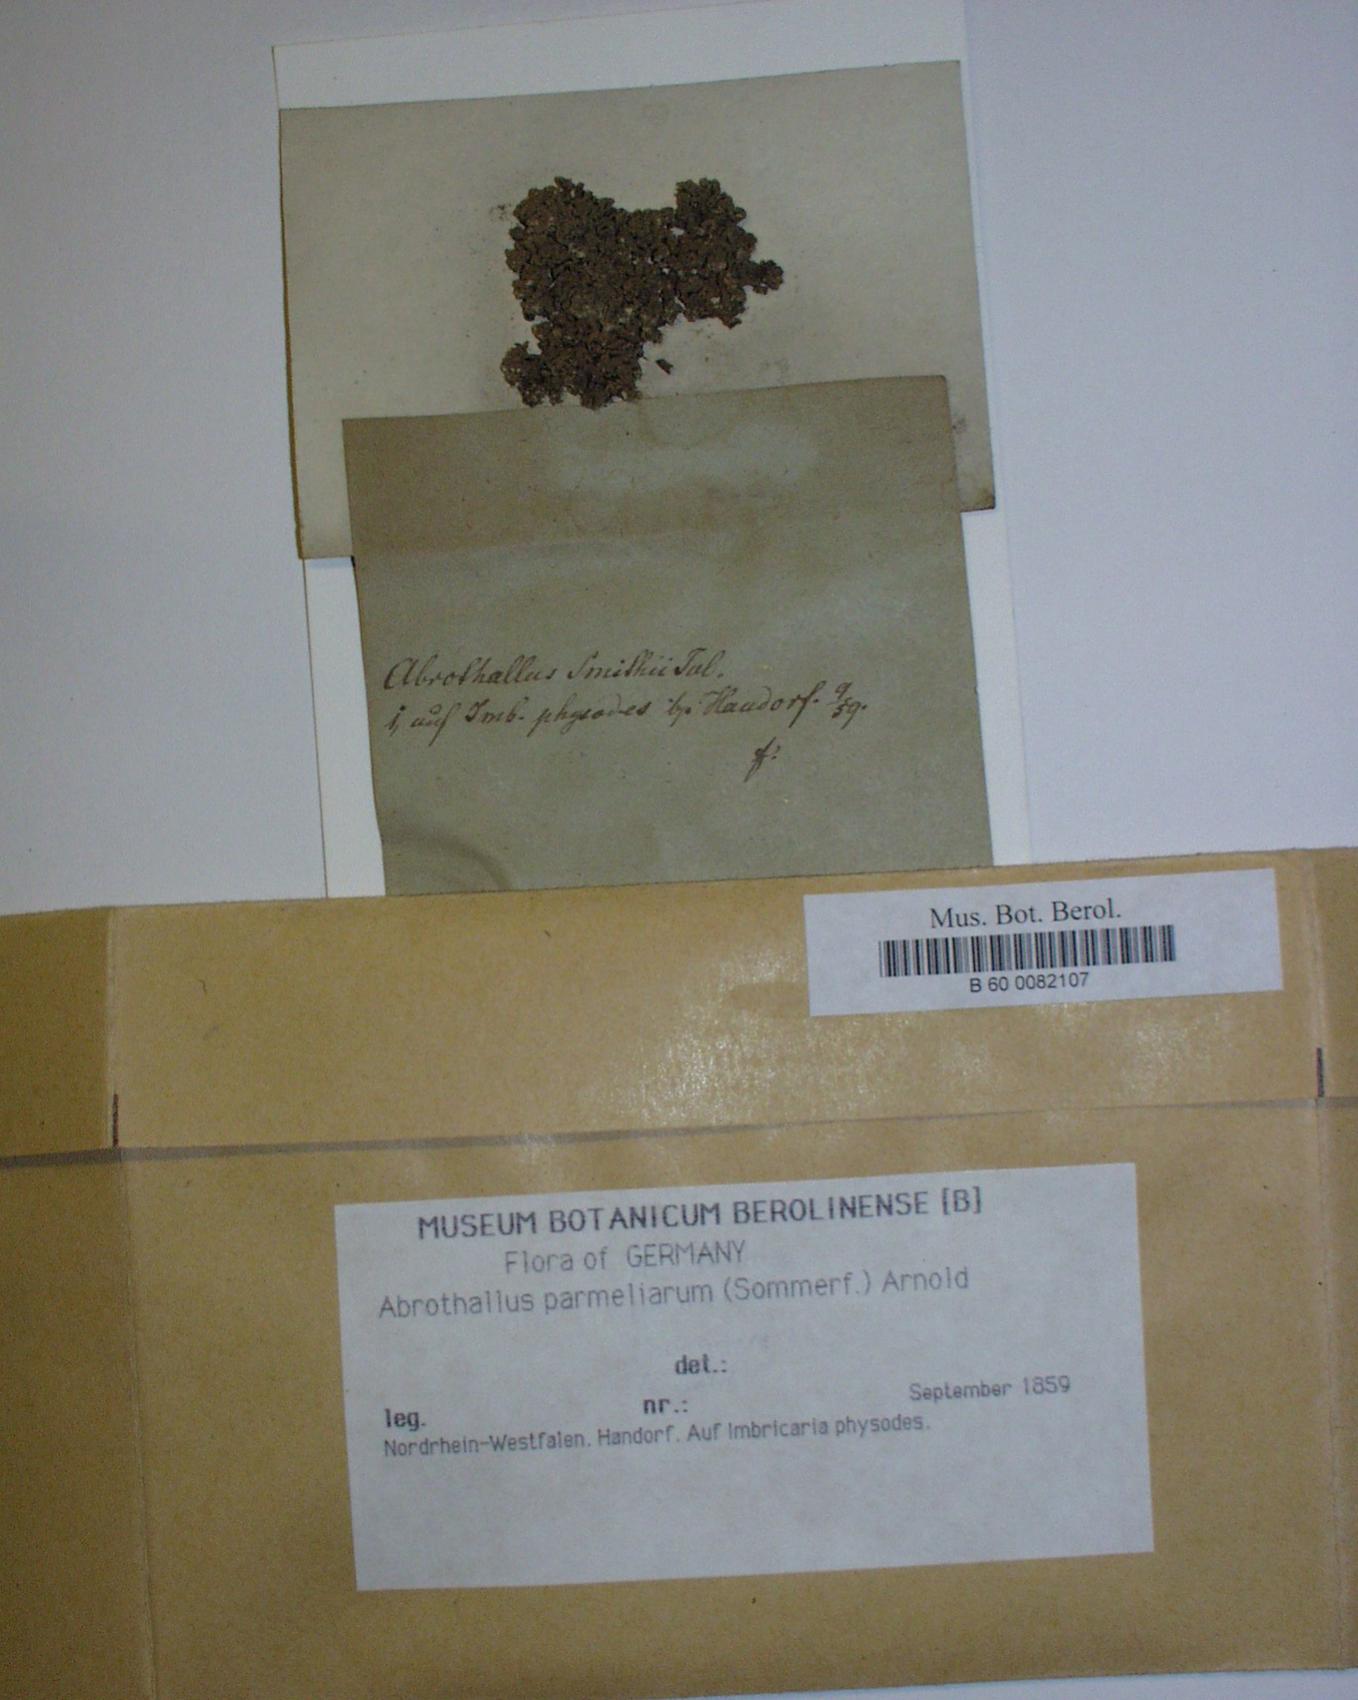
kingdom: Fungi
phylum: Ascomycota
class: Dothideomycetes
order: Abrothallales
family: Abrothallaceae
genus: Abrothallus
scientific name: Abrothallus parmeliarum
